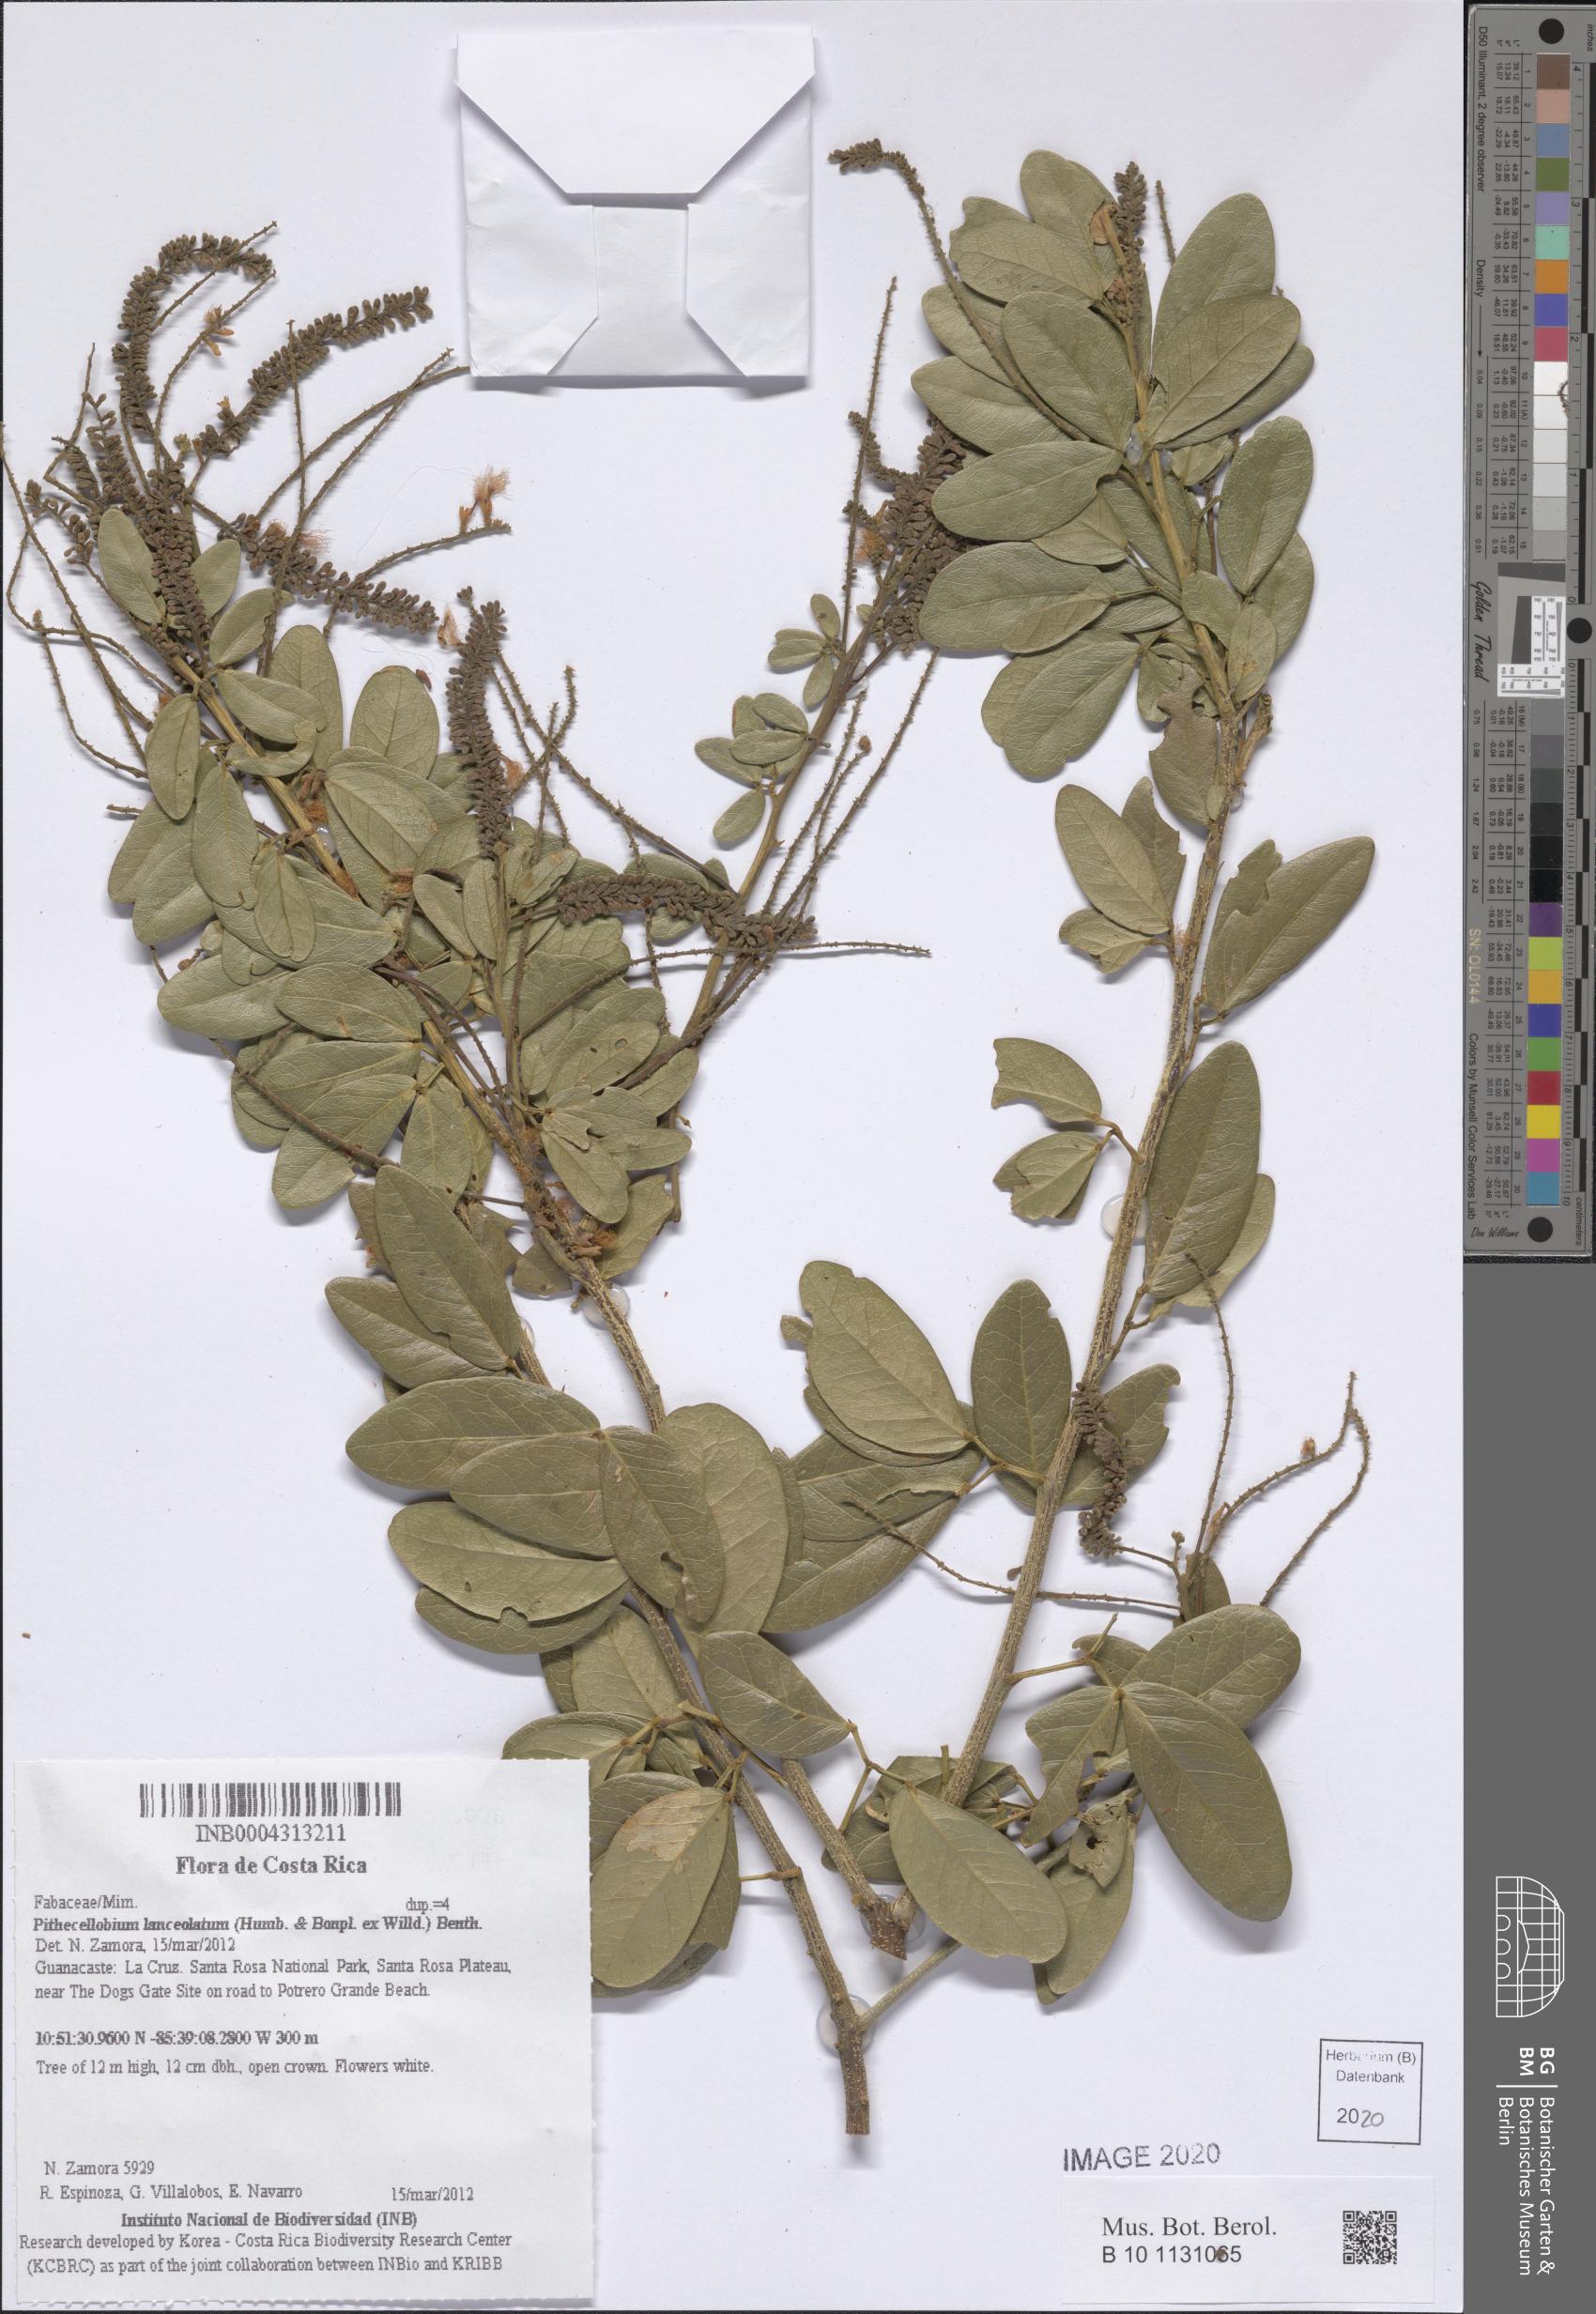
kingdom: Plantae
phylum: Tracheophyta
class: Magnoliopsida
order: Fabales
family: Fabaceae
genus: Pithecellobium
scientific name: Pithecellobium lanceolatum
